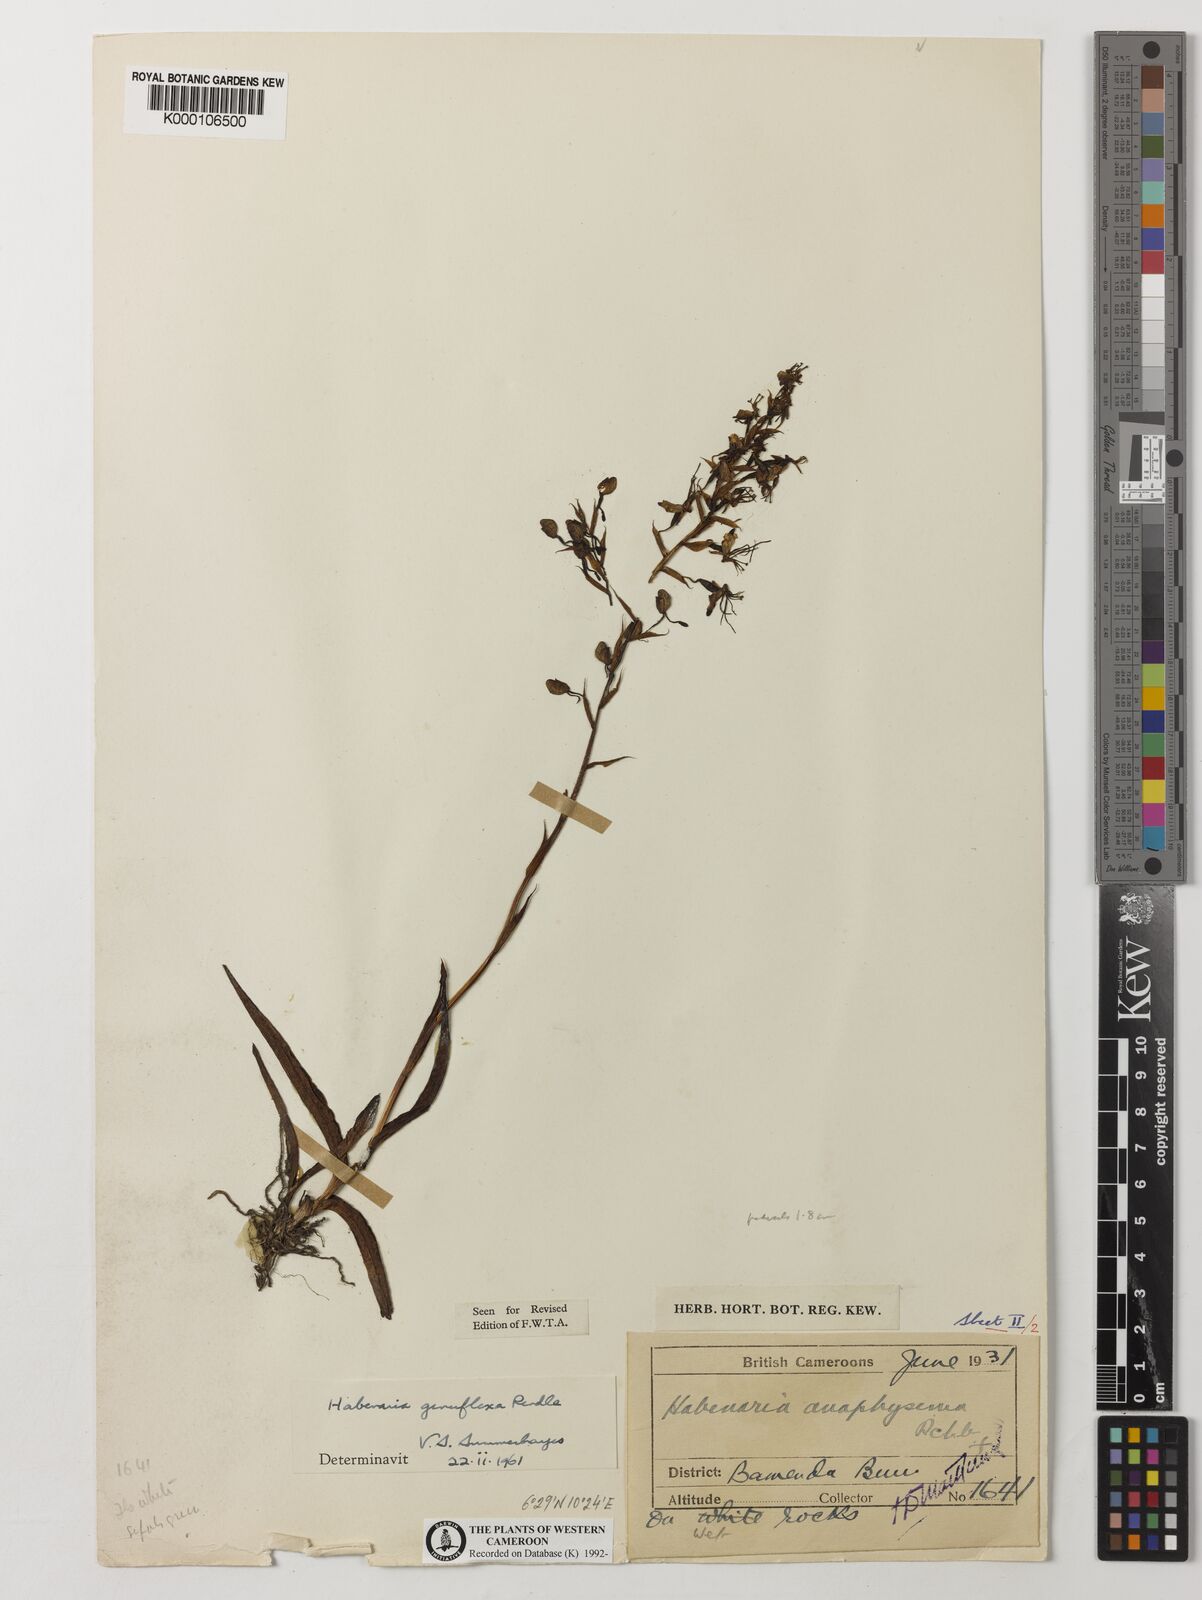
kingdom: Plantae
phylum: Tracheophyta
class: Liliopsida
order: Asparagales
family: Orchidaceae
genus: Habenaria
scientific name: Habenaria genuflexa
